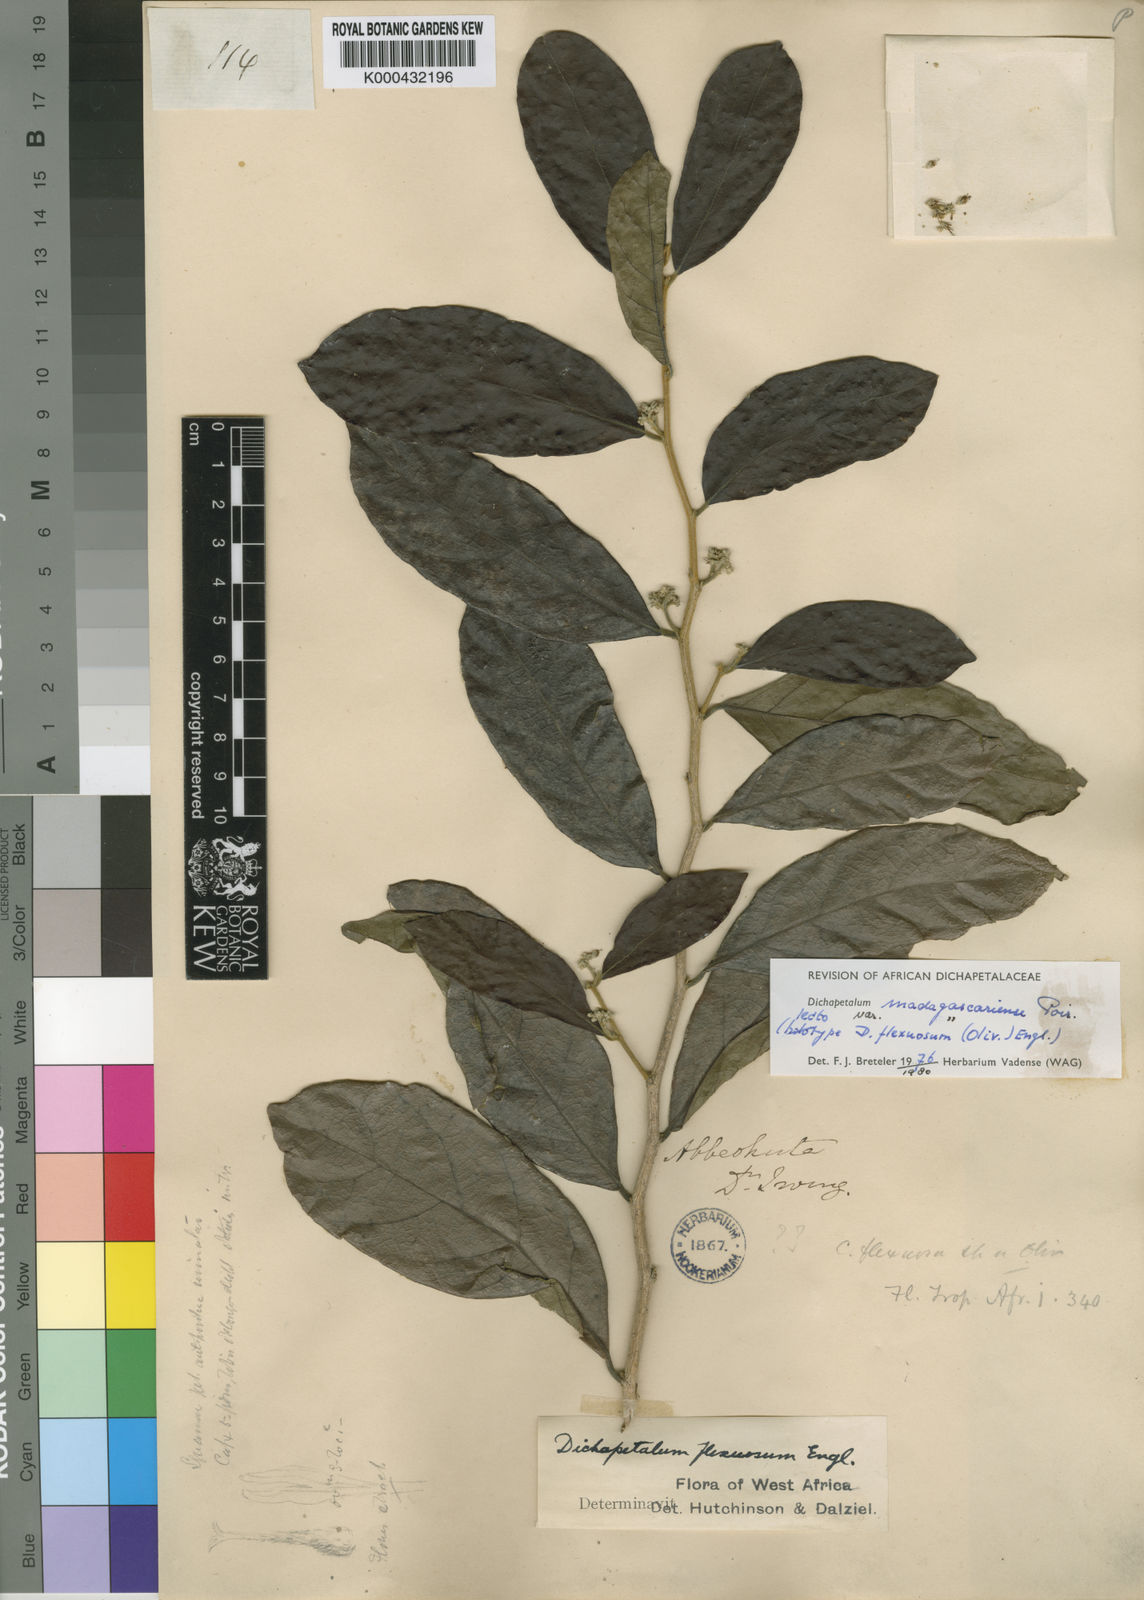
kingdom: Plantae
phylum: Tracheophyta
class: Magnoliopsida
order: Malpighiales
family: Dichapetalaceae
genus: Dichapetalum
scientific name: Dichapetalum madagascariense
